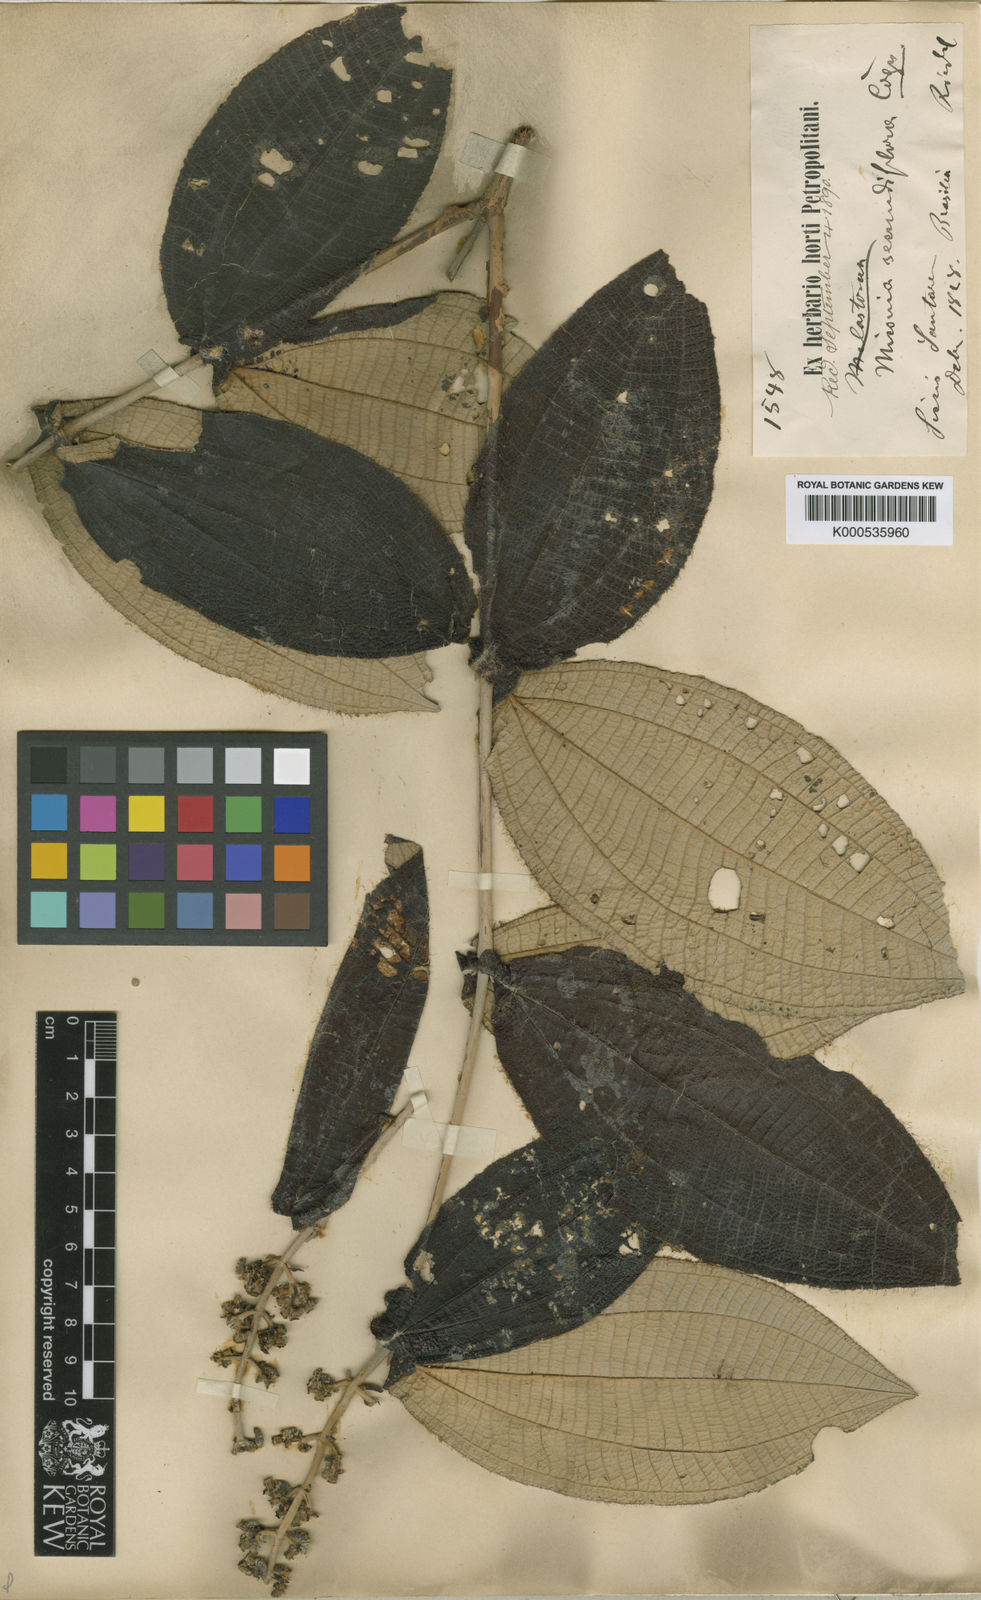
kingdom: Plantae
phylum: Tracheophyta
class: Magnoliopsida
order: Myrtales
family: Melastomataceae
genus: Miconia
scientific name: Miconia secundiflora
